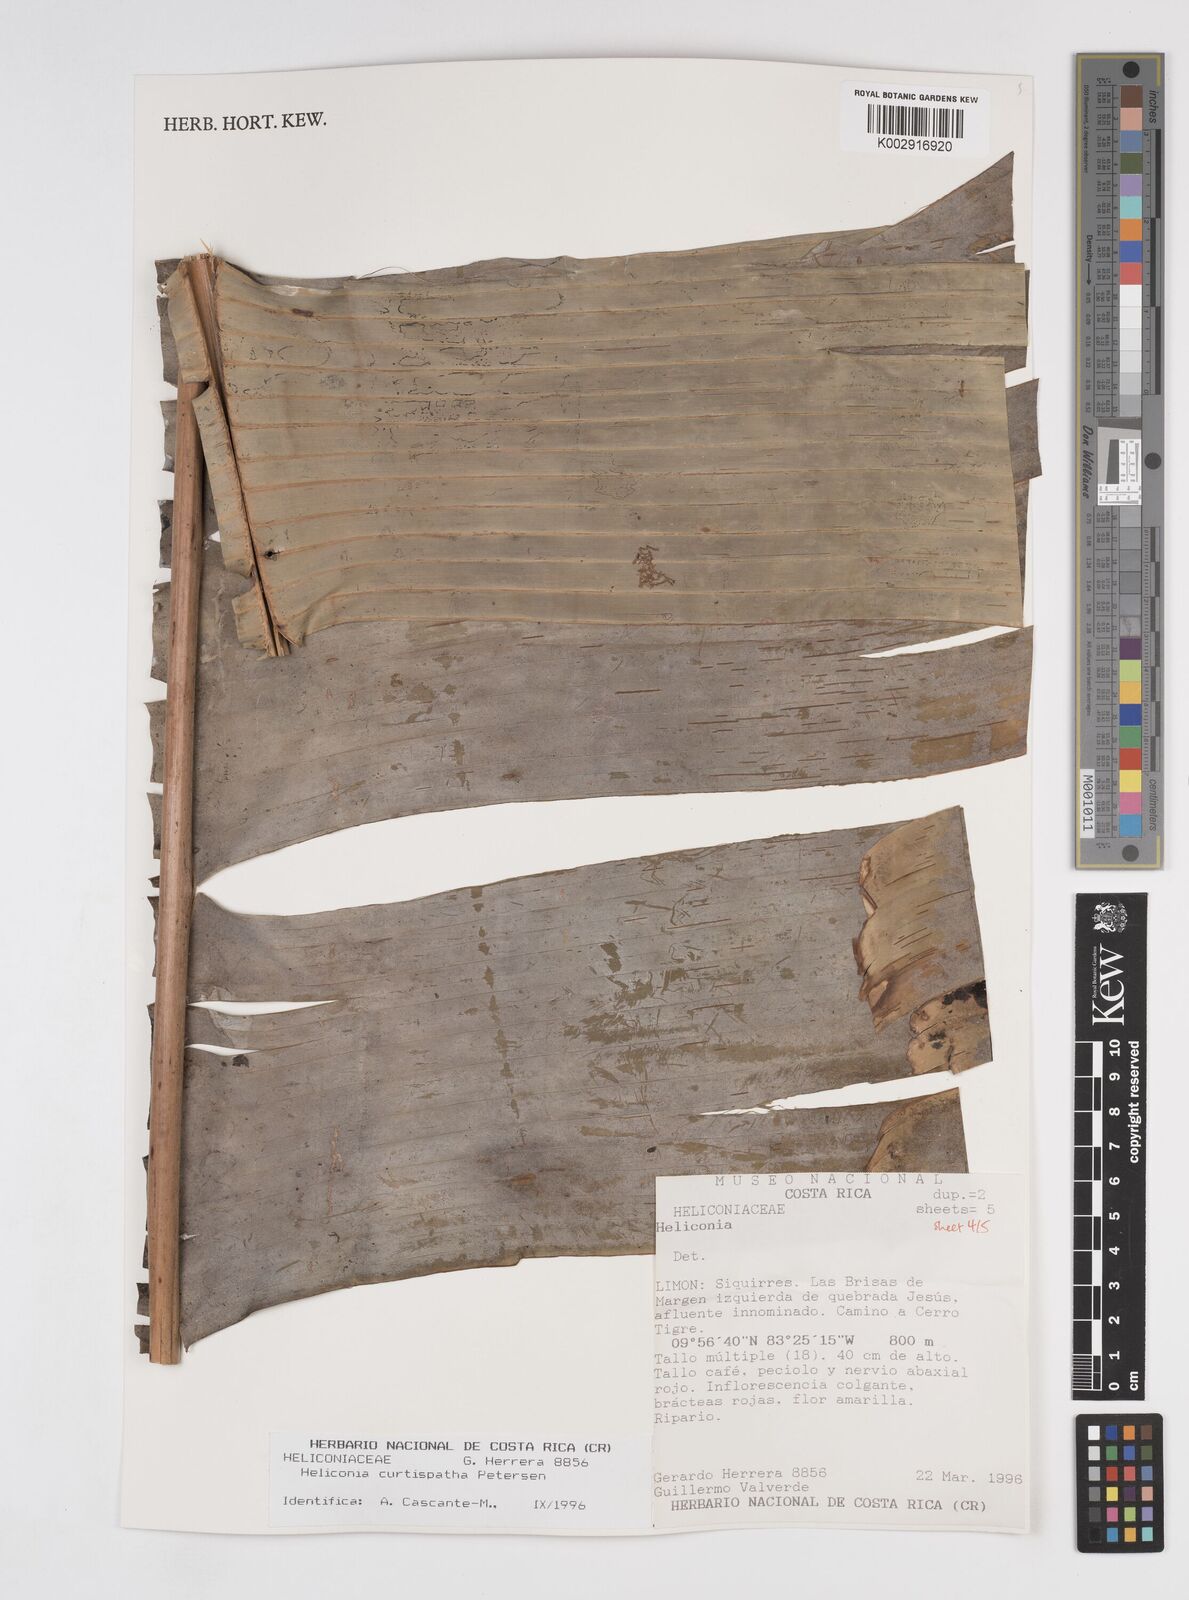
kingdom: Plantae
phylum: Tracheophyta
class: Liliopsida
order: Zingiberales
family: Heliconiaceae
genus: Heliconia
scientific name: Heliconia curtispatha
